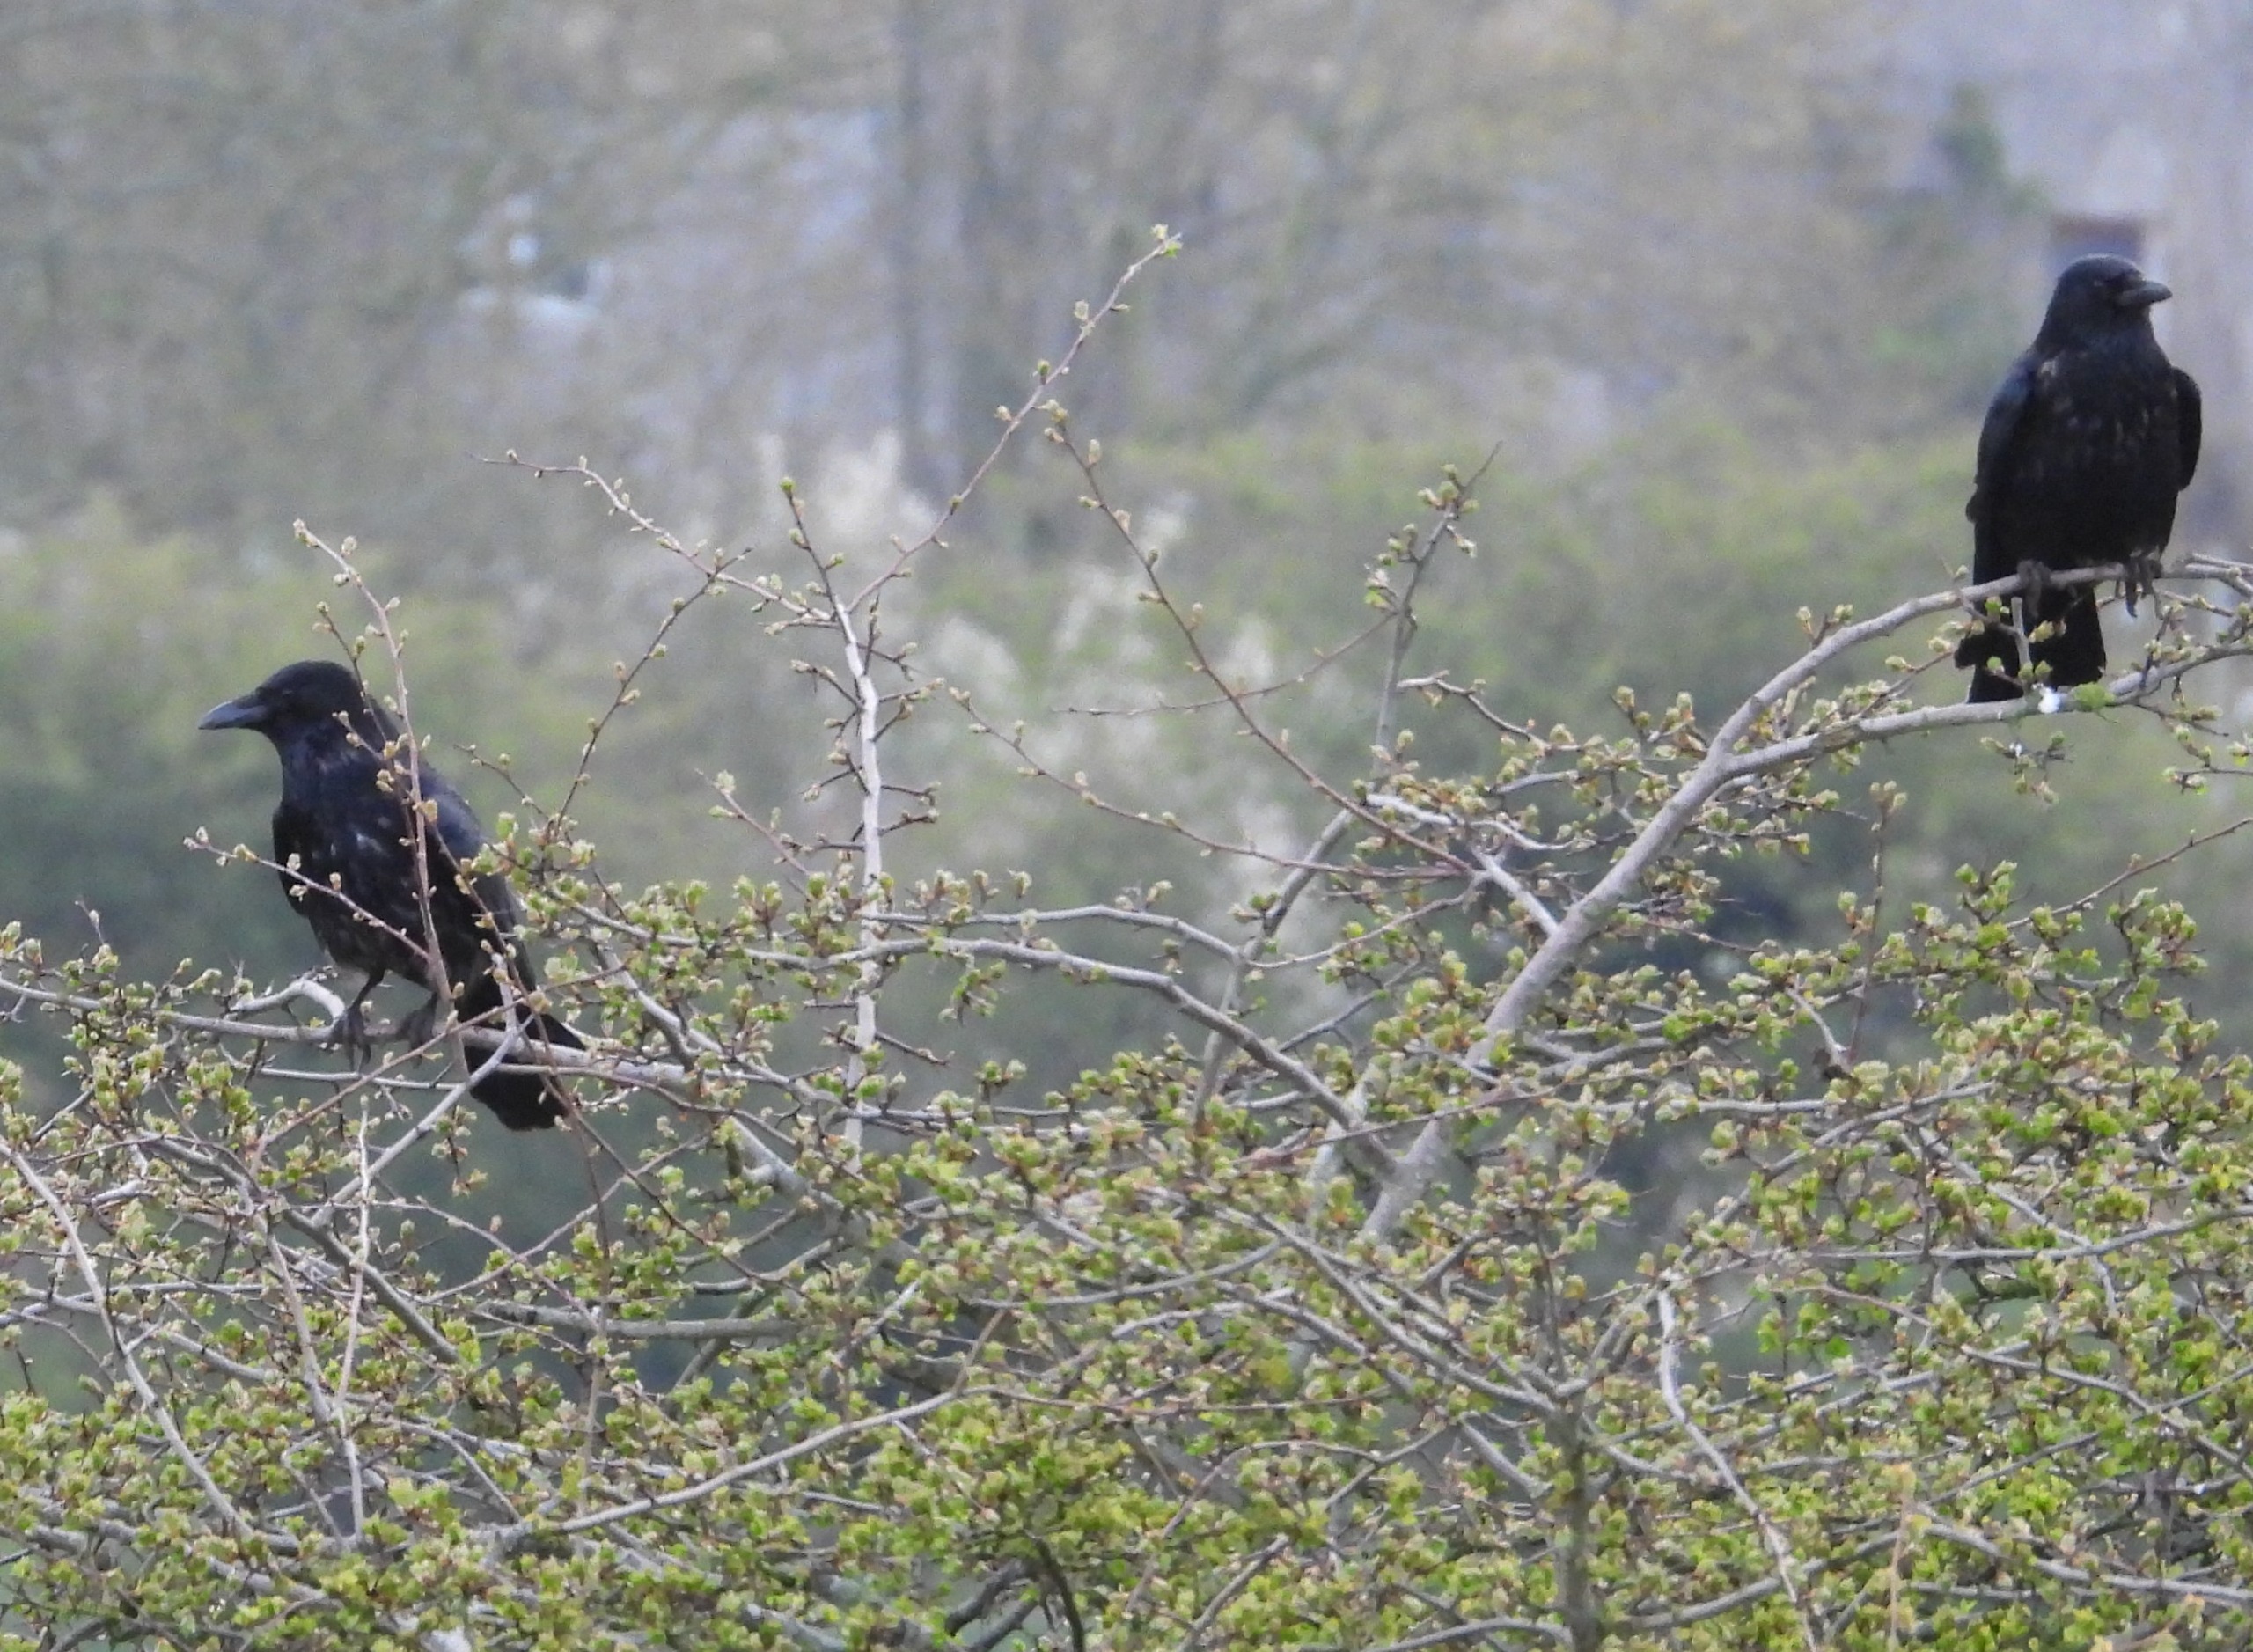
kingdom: Animalia
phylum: Chordata
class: Aves
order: Passeriformes
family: Corvidae
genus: Corvus
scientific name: Corvus corone
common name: Sortkrage
